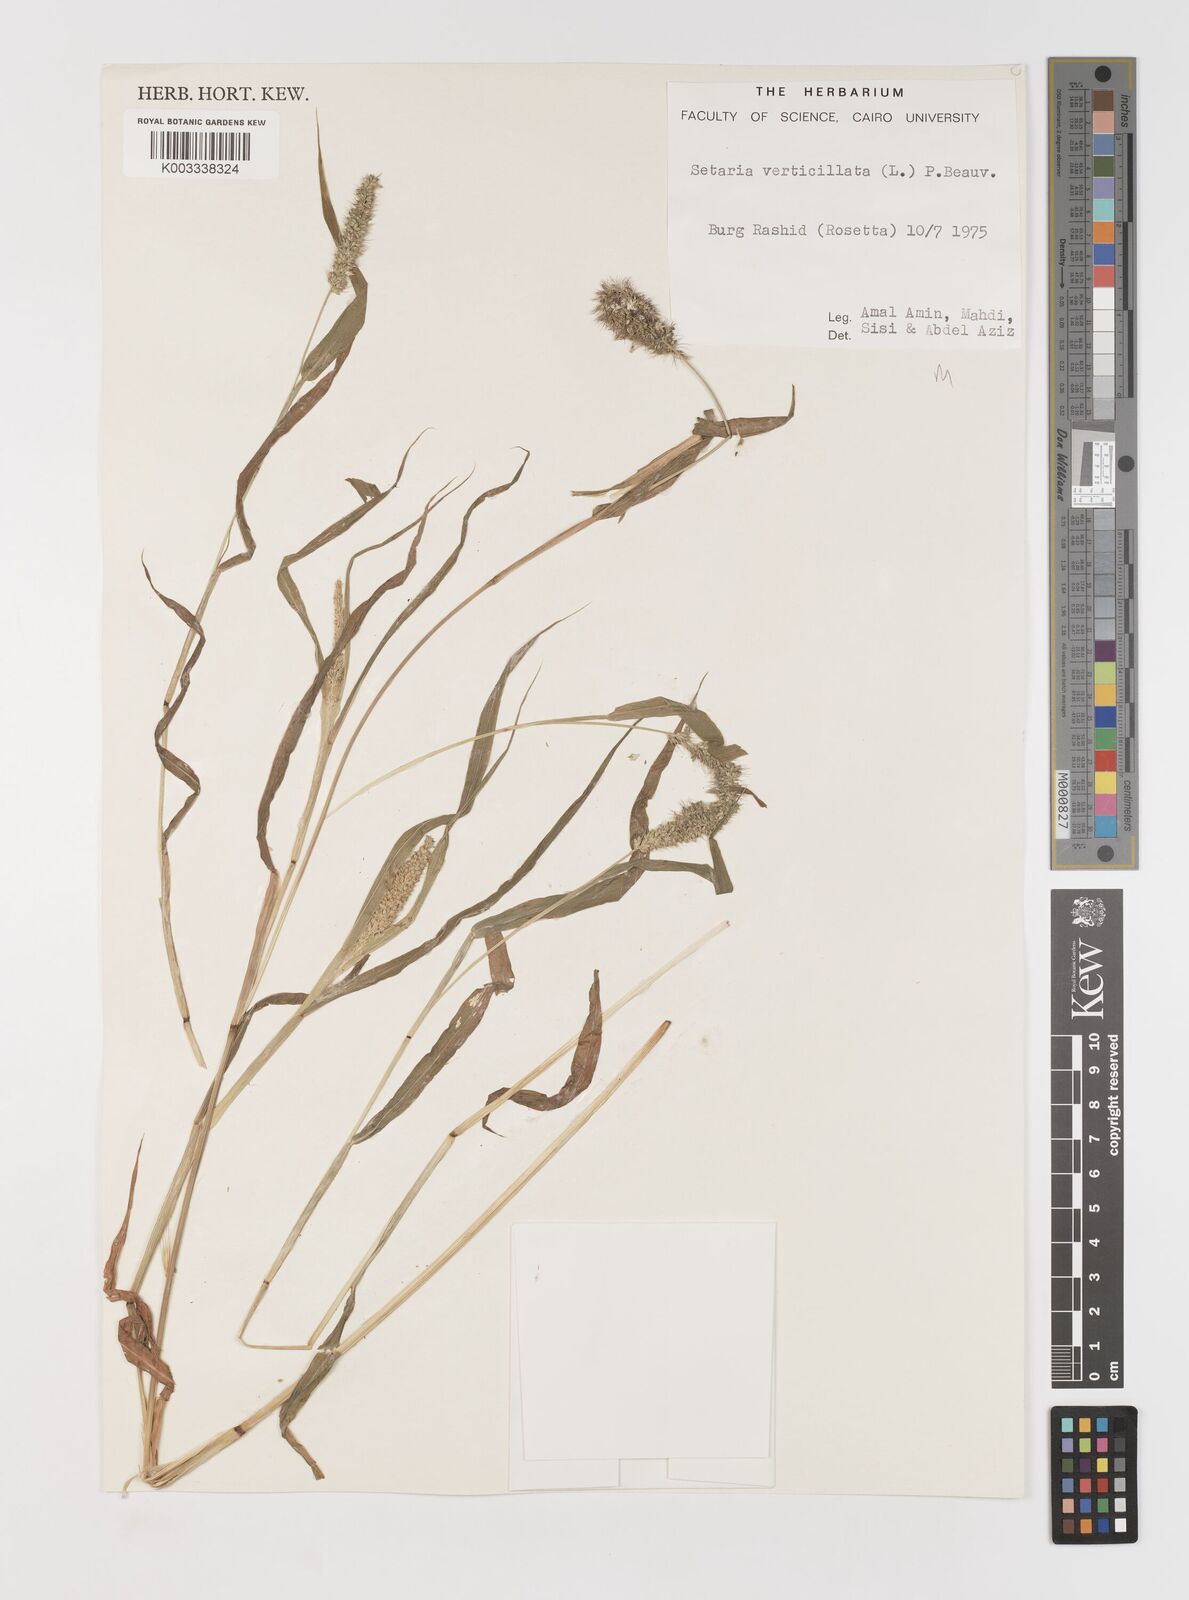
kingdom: Plantae
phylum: Tracheophyta
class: Liliopsida
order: Poales
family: Poaceae
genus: Setaria
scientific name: Setaria verticillata
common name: Hooked bristlegrass
